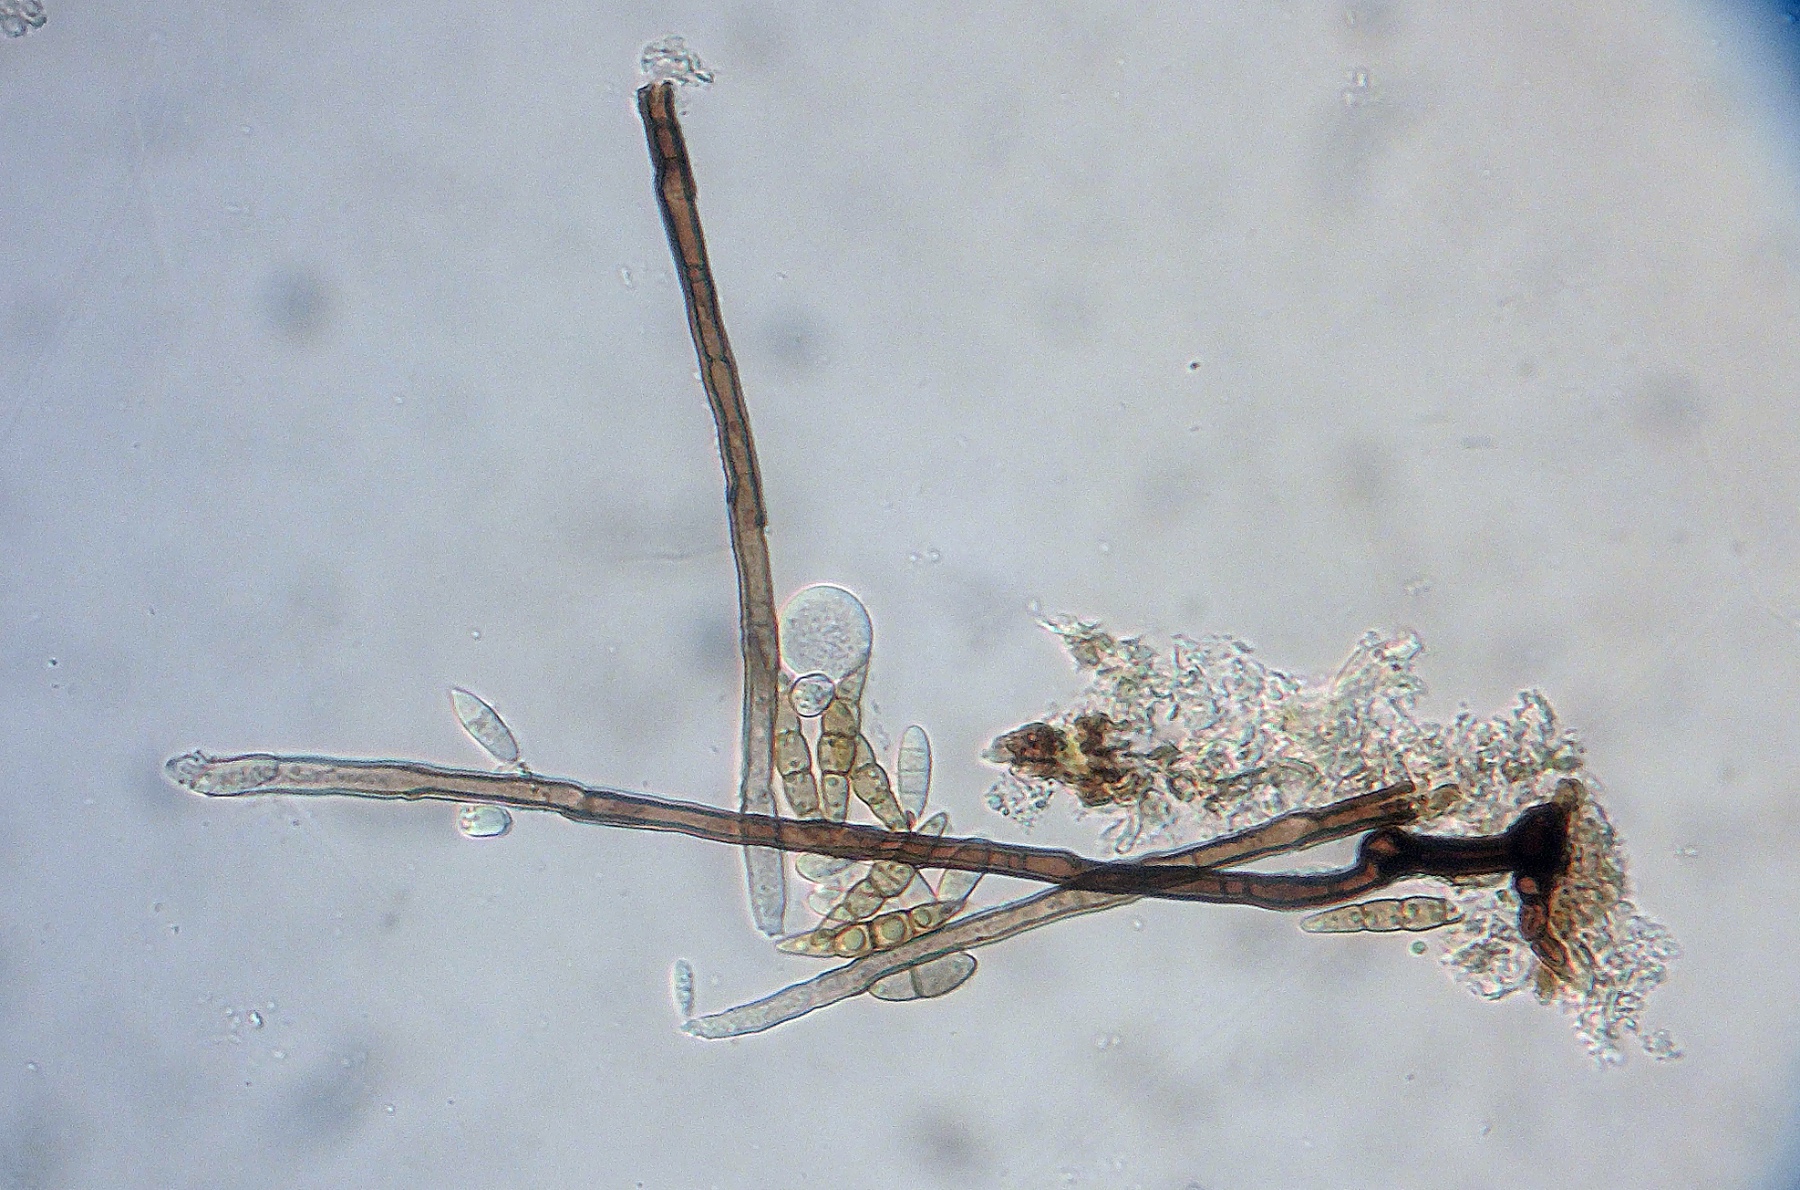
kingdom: Fungi
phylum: Ascomycota
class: Leotiomycetes
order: Helotiales
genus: Dactylaria
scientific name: Dactylaria parvispora
